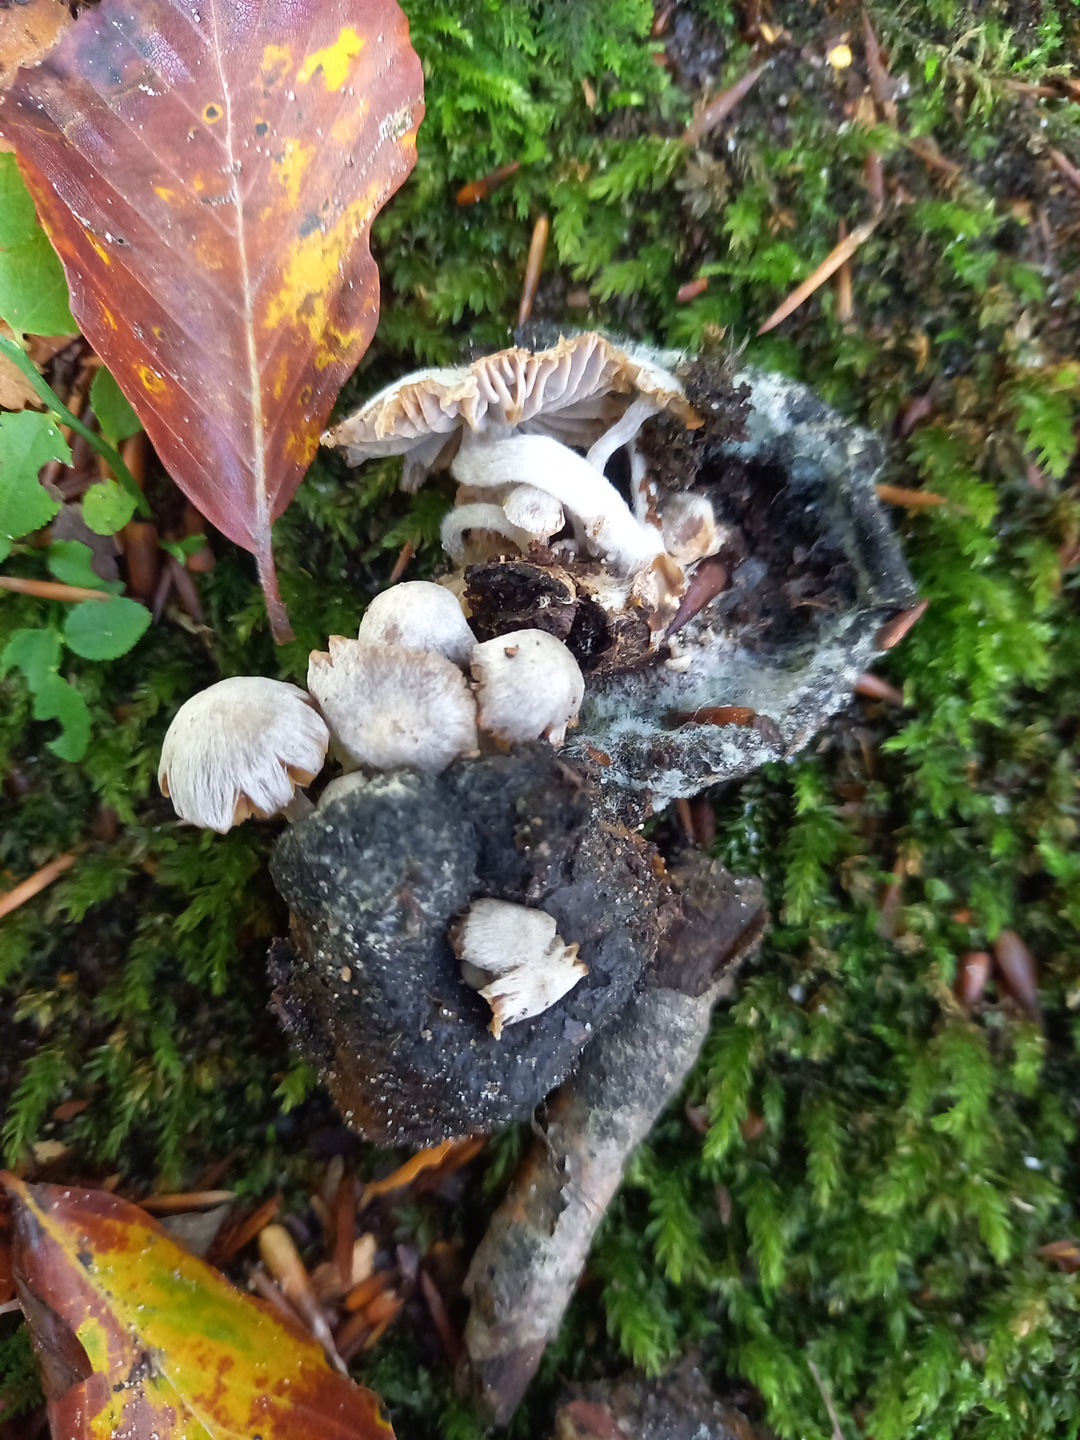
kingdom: Fungi
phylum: Basidiomycota
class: Agaricomycetes
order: Agaricales
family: Lyophyllaceae
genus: Asterophora
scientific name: Asterophora parasitica
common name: grå snyltehat
